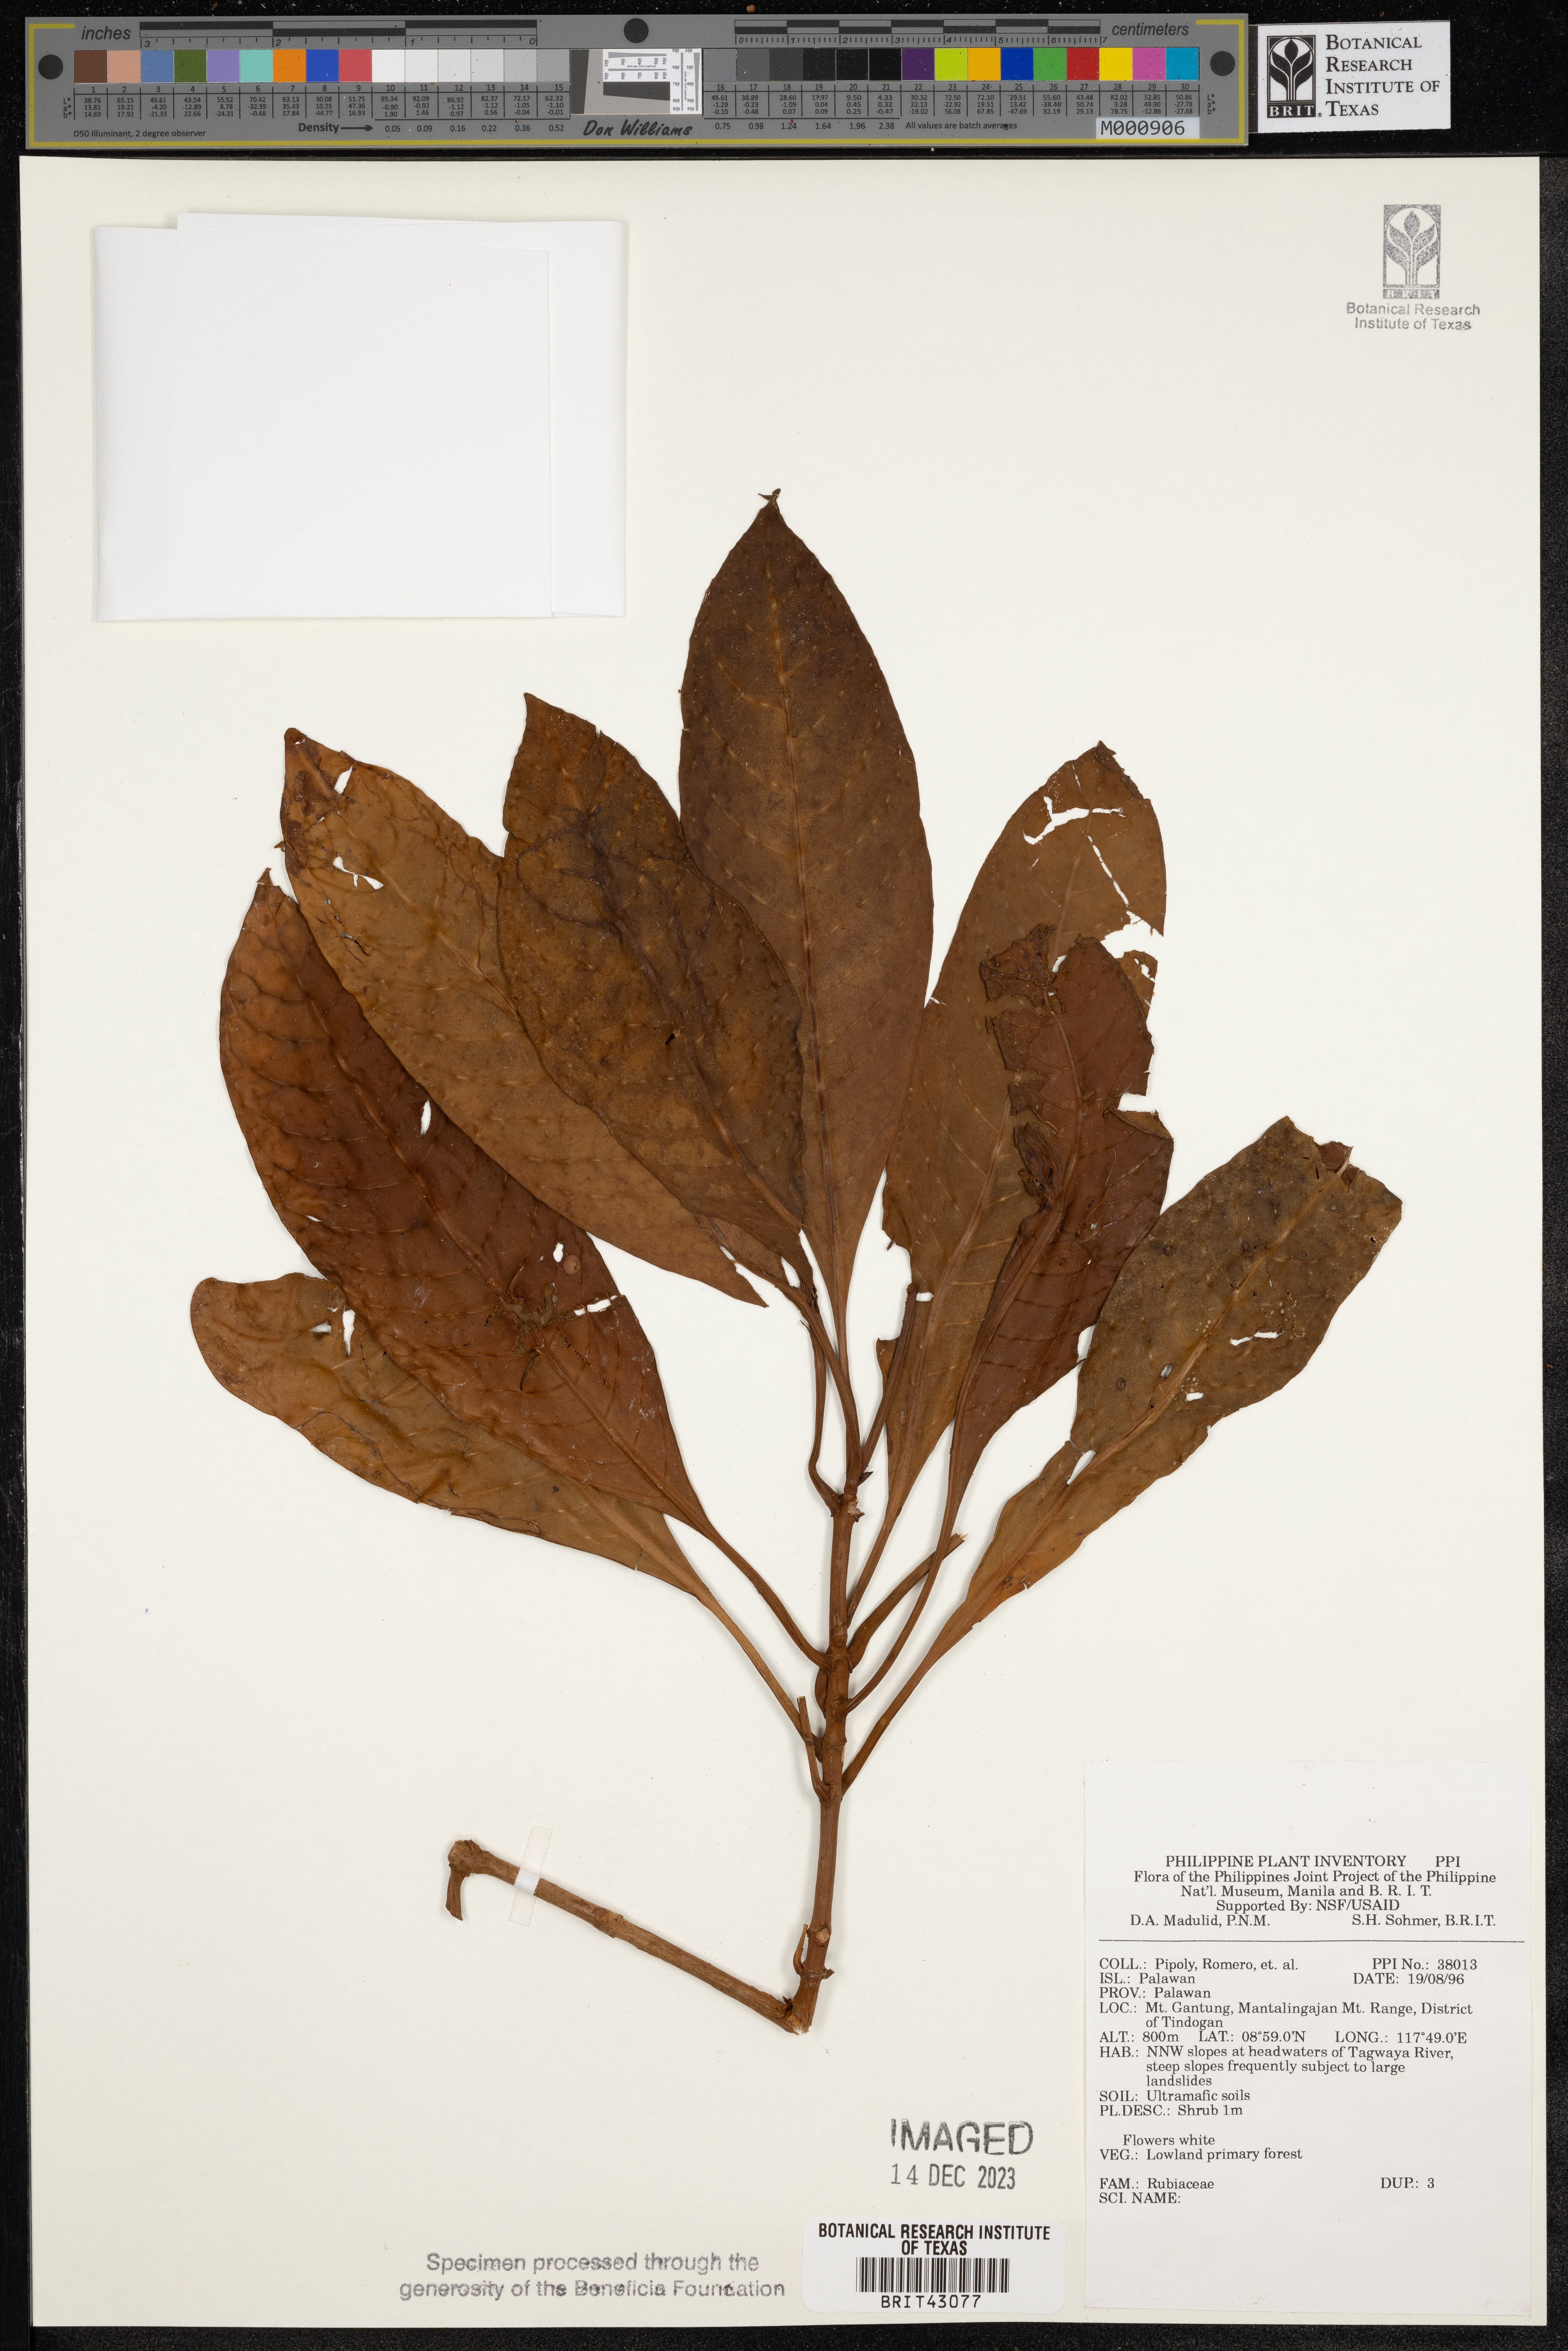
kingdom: Plantae
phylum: Tracheophyta
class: Magnoliopsida
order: Gentianales
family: Rubiaceae
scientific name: Rubiaceae
